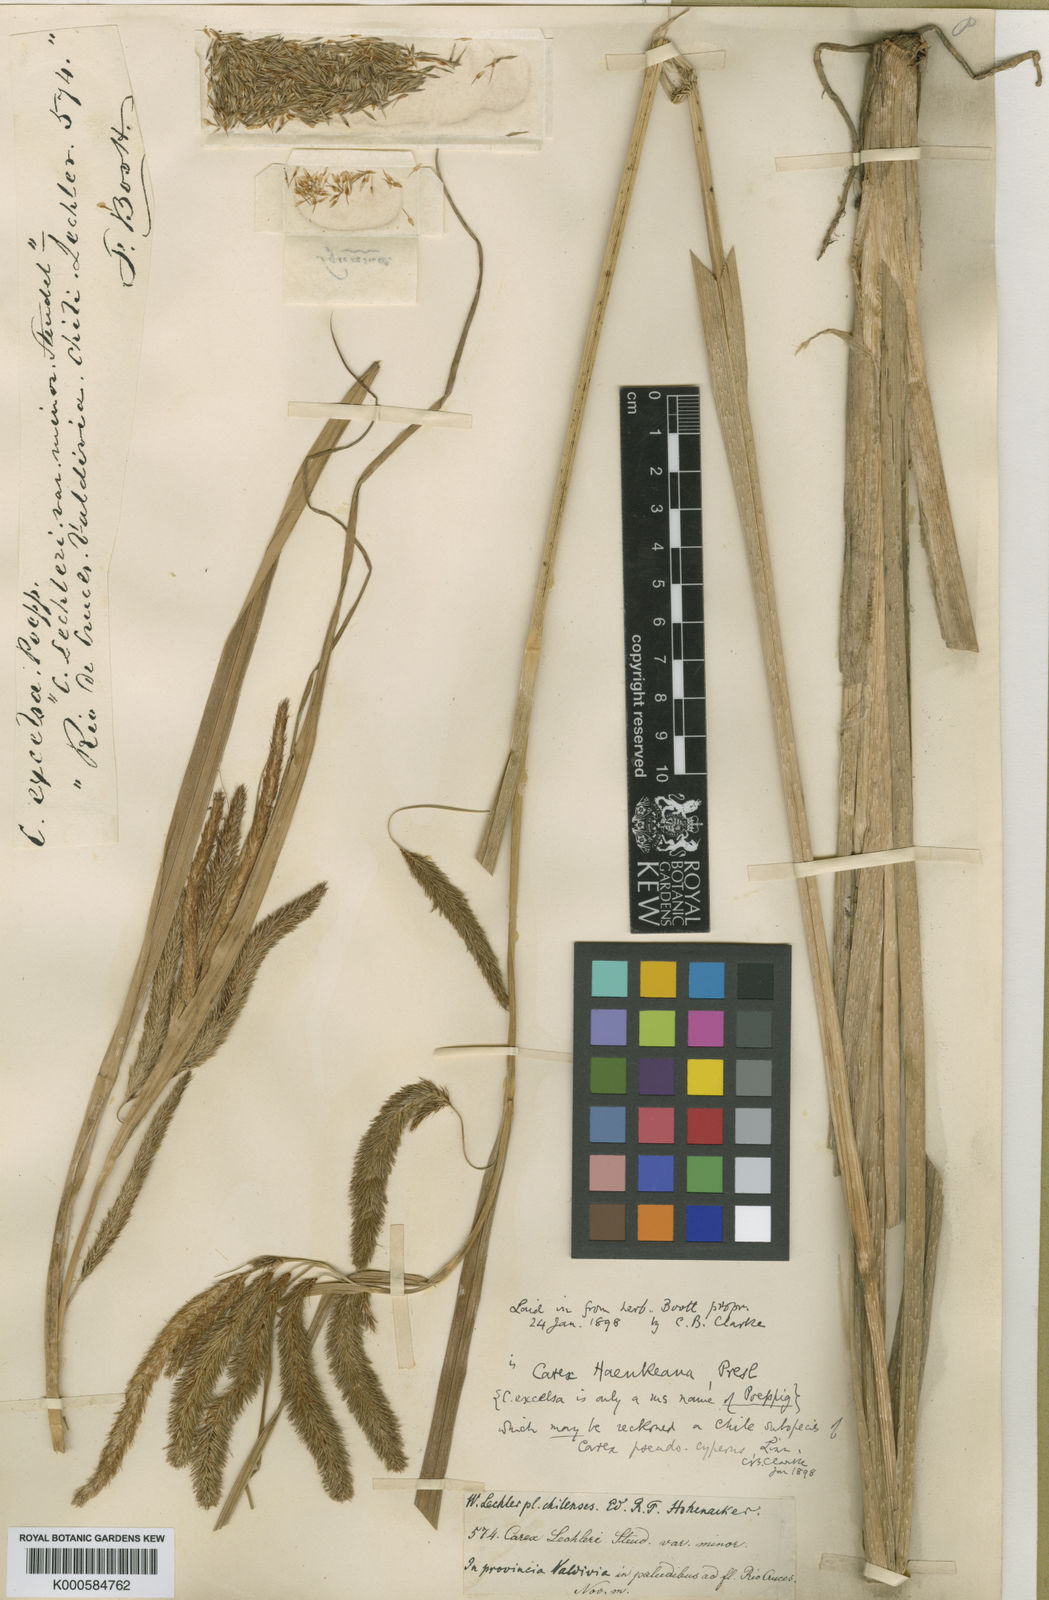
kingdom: Plantae
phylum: Tracheophyta
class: Liliopsida
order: Poales
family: Cyperaceae
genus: Carex
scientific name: Carex pseudocyperus
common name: Cyperus sedge
